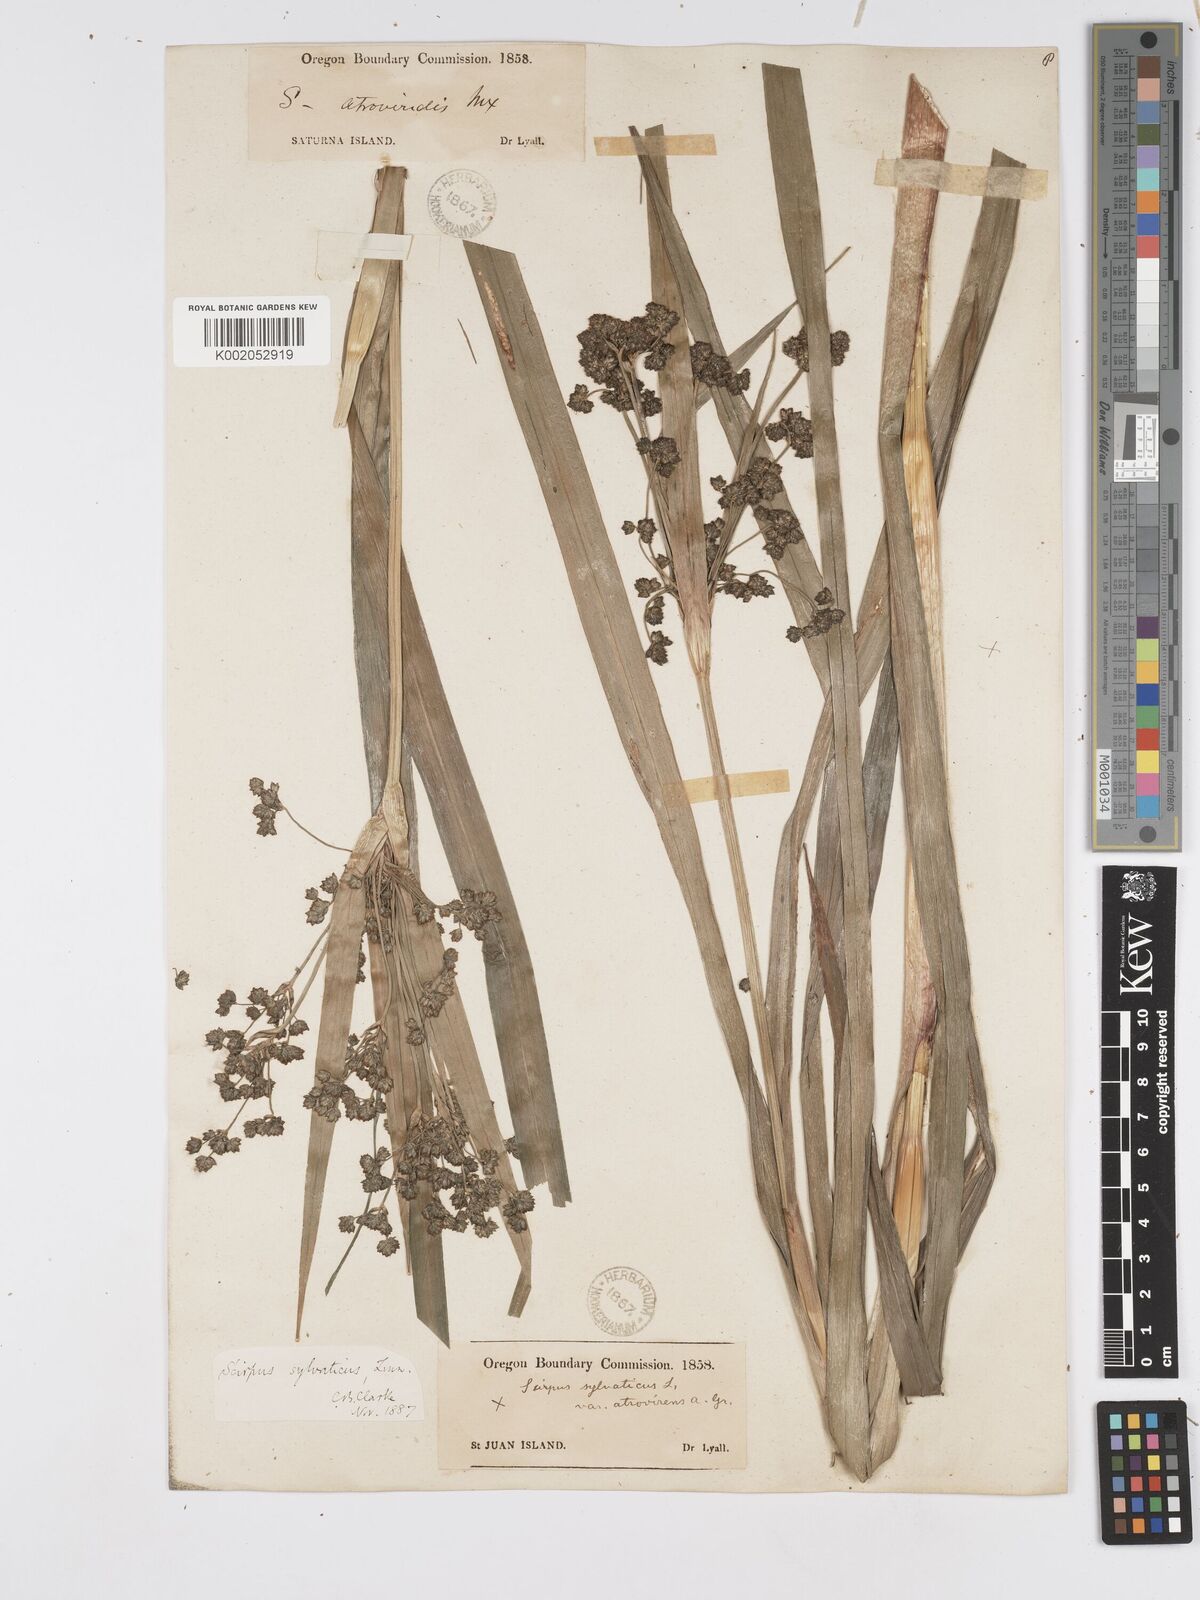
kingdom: Plantae
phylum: Tracheophyta
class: Liliopsida
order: Poales
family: Cyperaceae
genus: Scirpus
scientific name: Scirpus sylvaticus
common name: Wood club-rush
